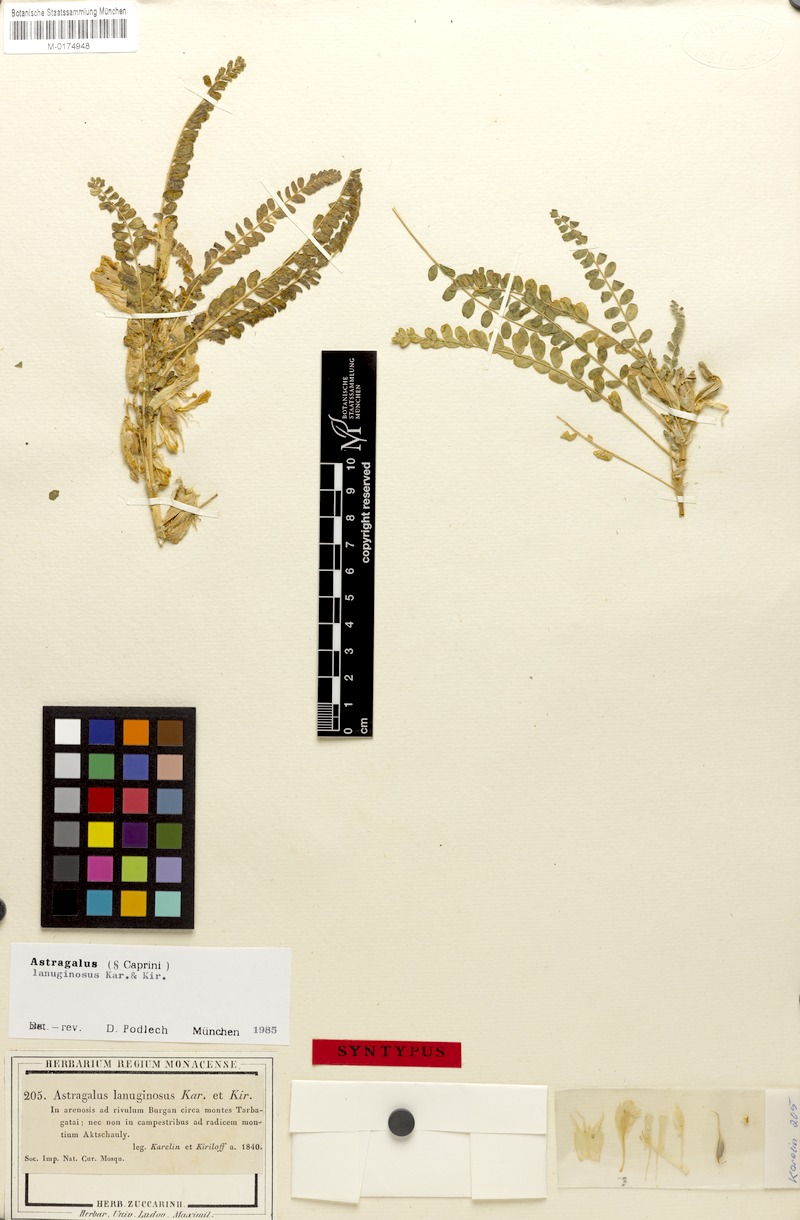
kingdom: Plantae
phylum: Tracheophyta
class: Magnoliopsida
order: Fabales
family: Fabaceae
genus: Astragalus
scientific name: Astragalus larvatus
